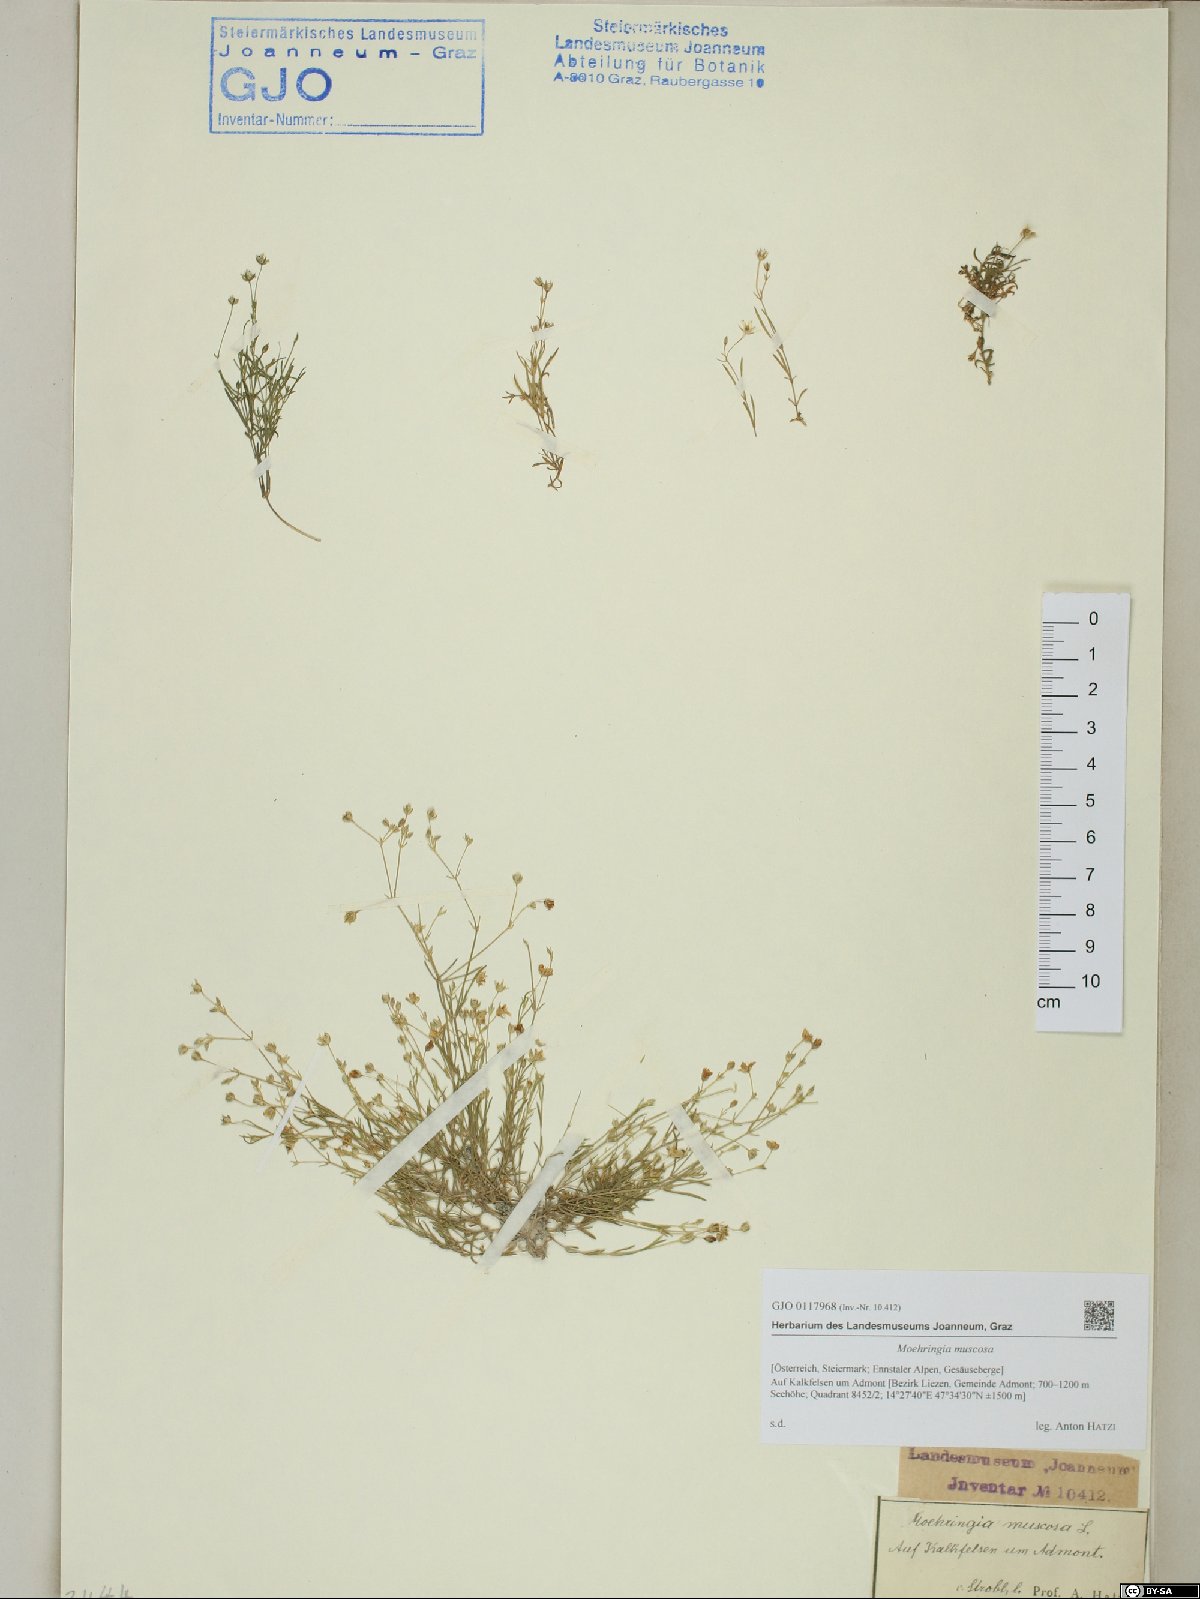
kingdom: Plantae
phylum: Tracheophyta
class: Magnoliopsida
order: Caryophyllales
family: Caryophyllaceae
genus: Moehringia
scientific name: Moehringia muscosa
